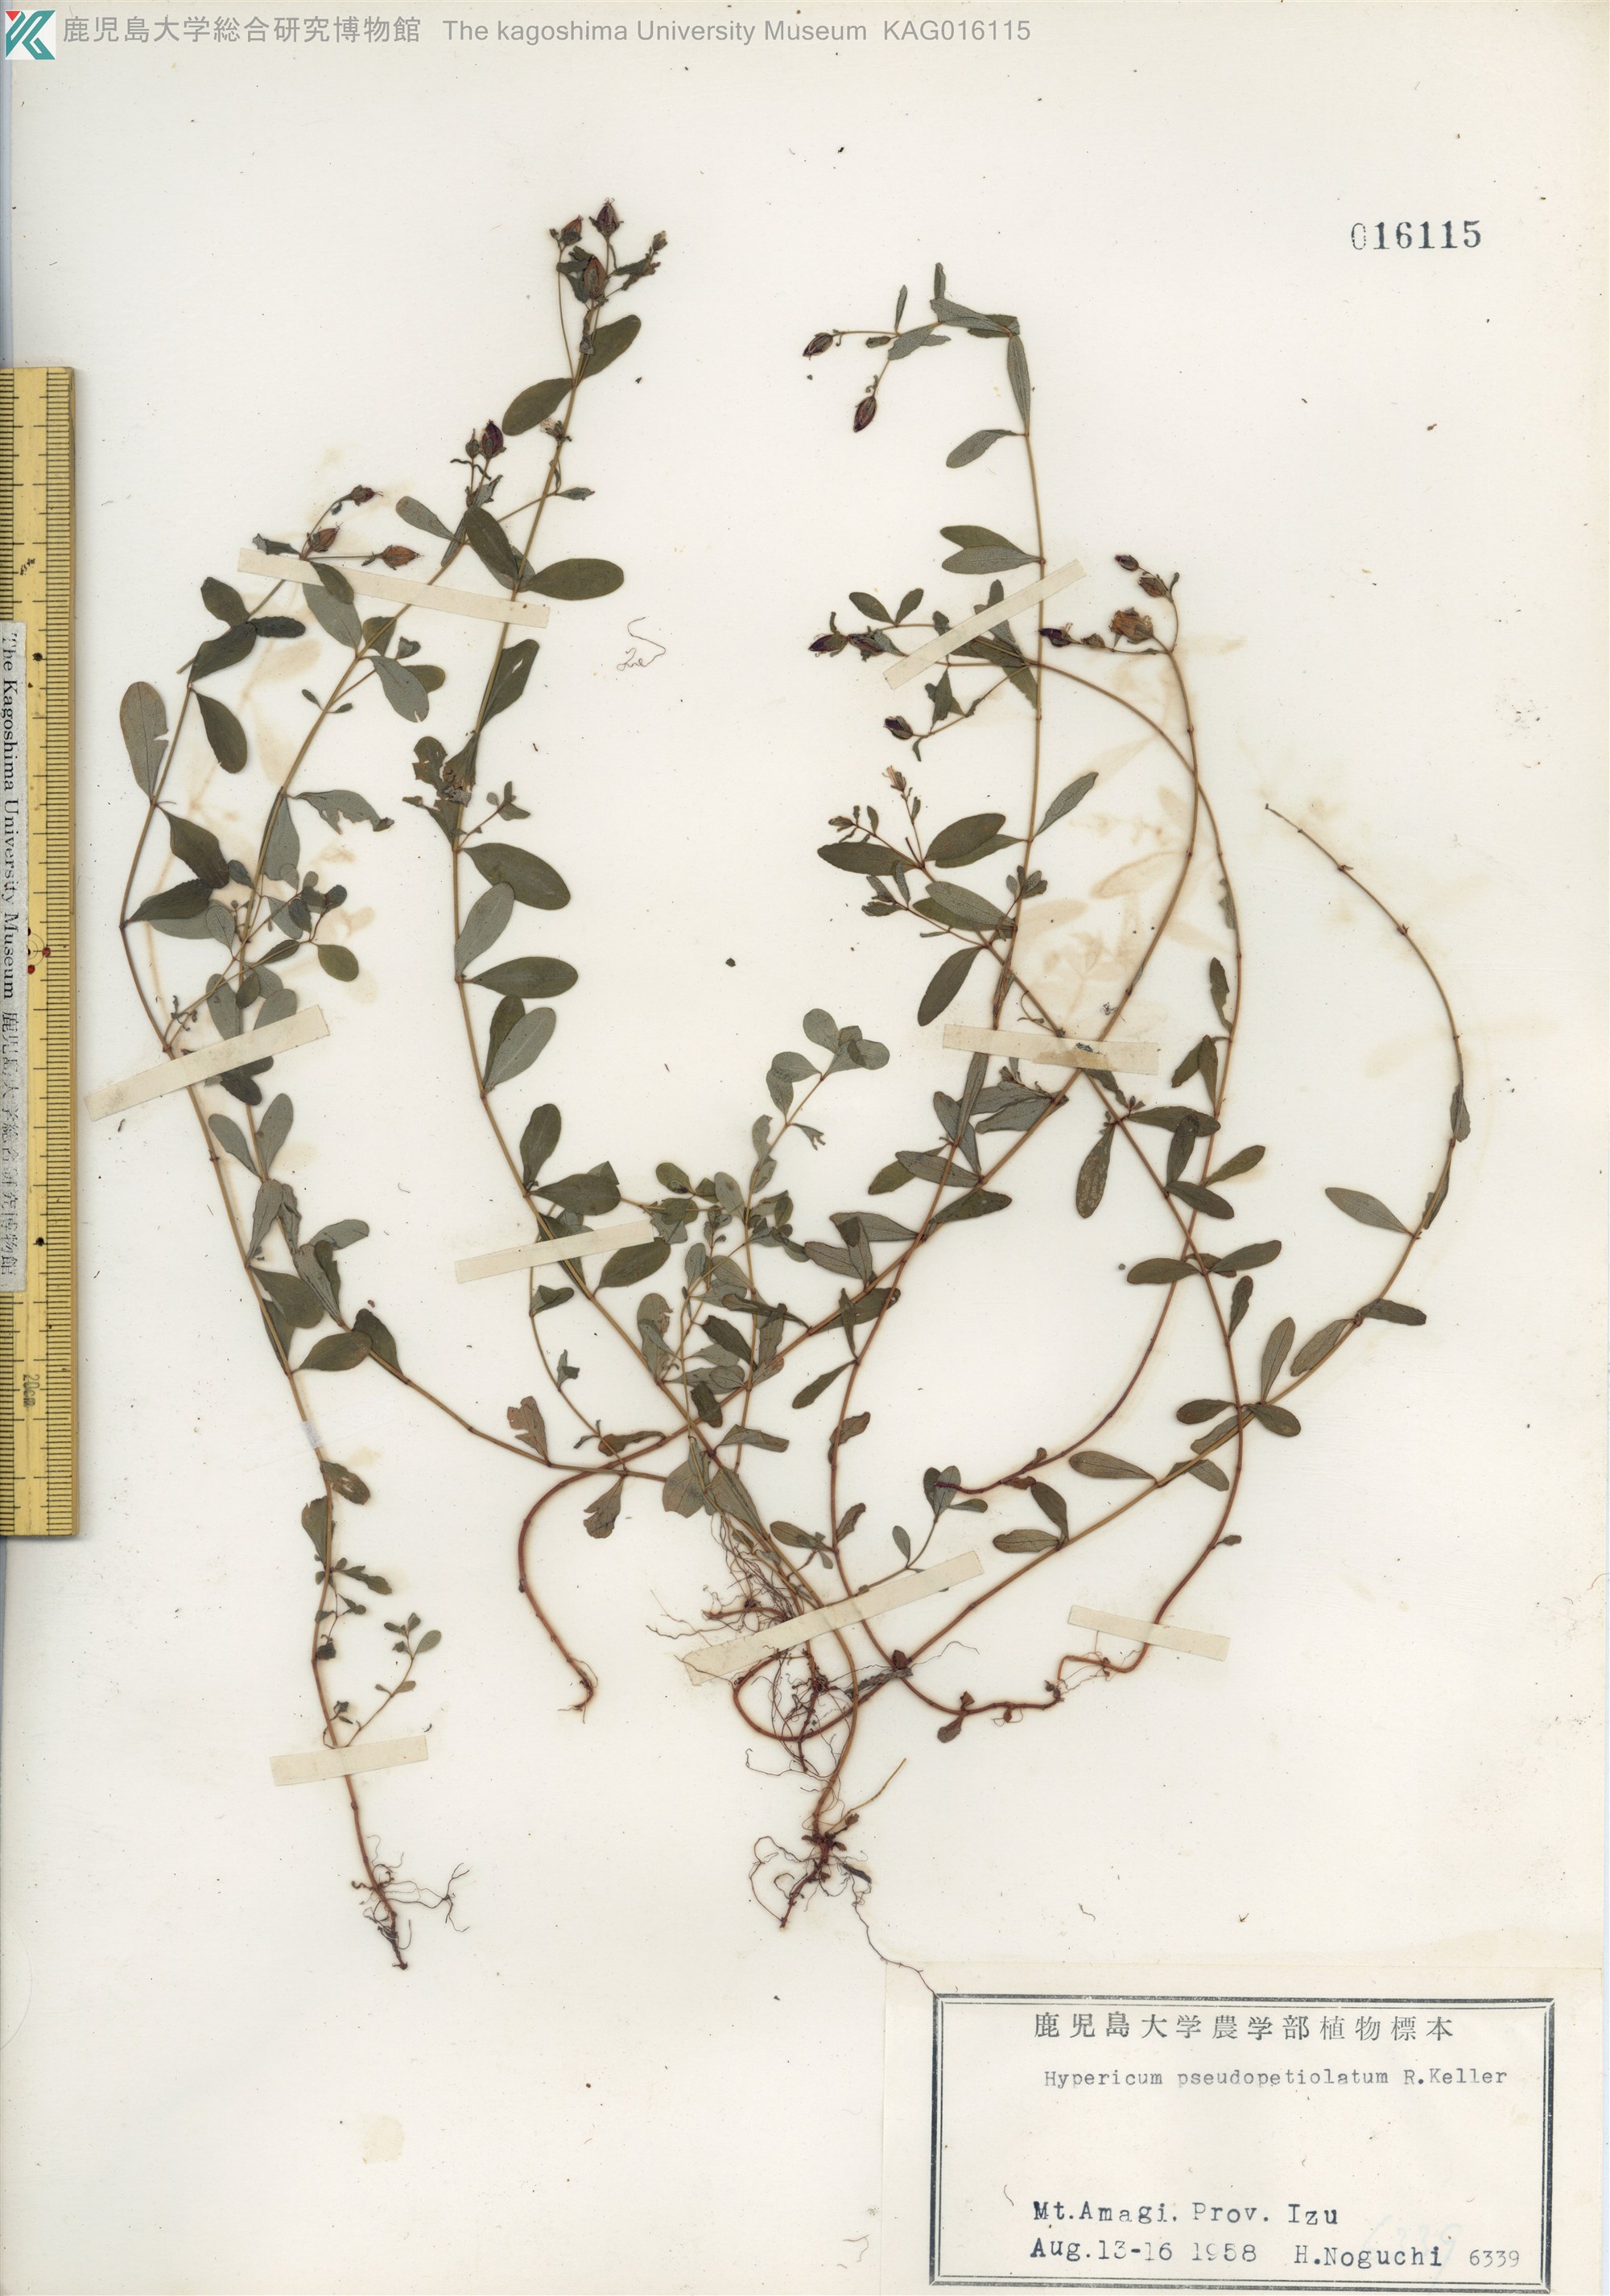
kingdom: Plantae
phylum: Tracheophyta
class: Magnoliopsida
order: Malpighiales
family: Hypericaceae
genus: Hypericum
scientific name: Hypericum pseudopetiolatum
